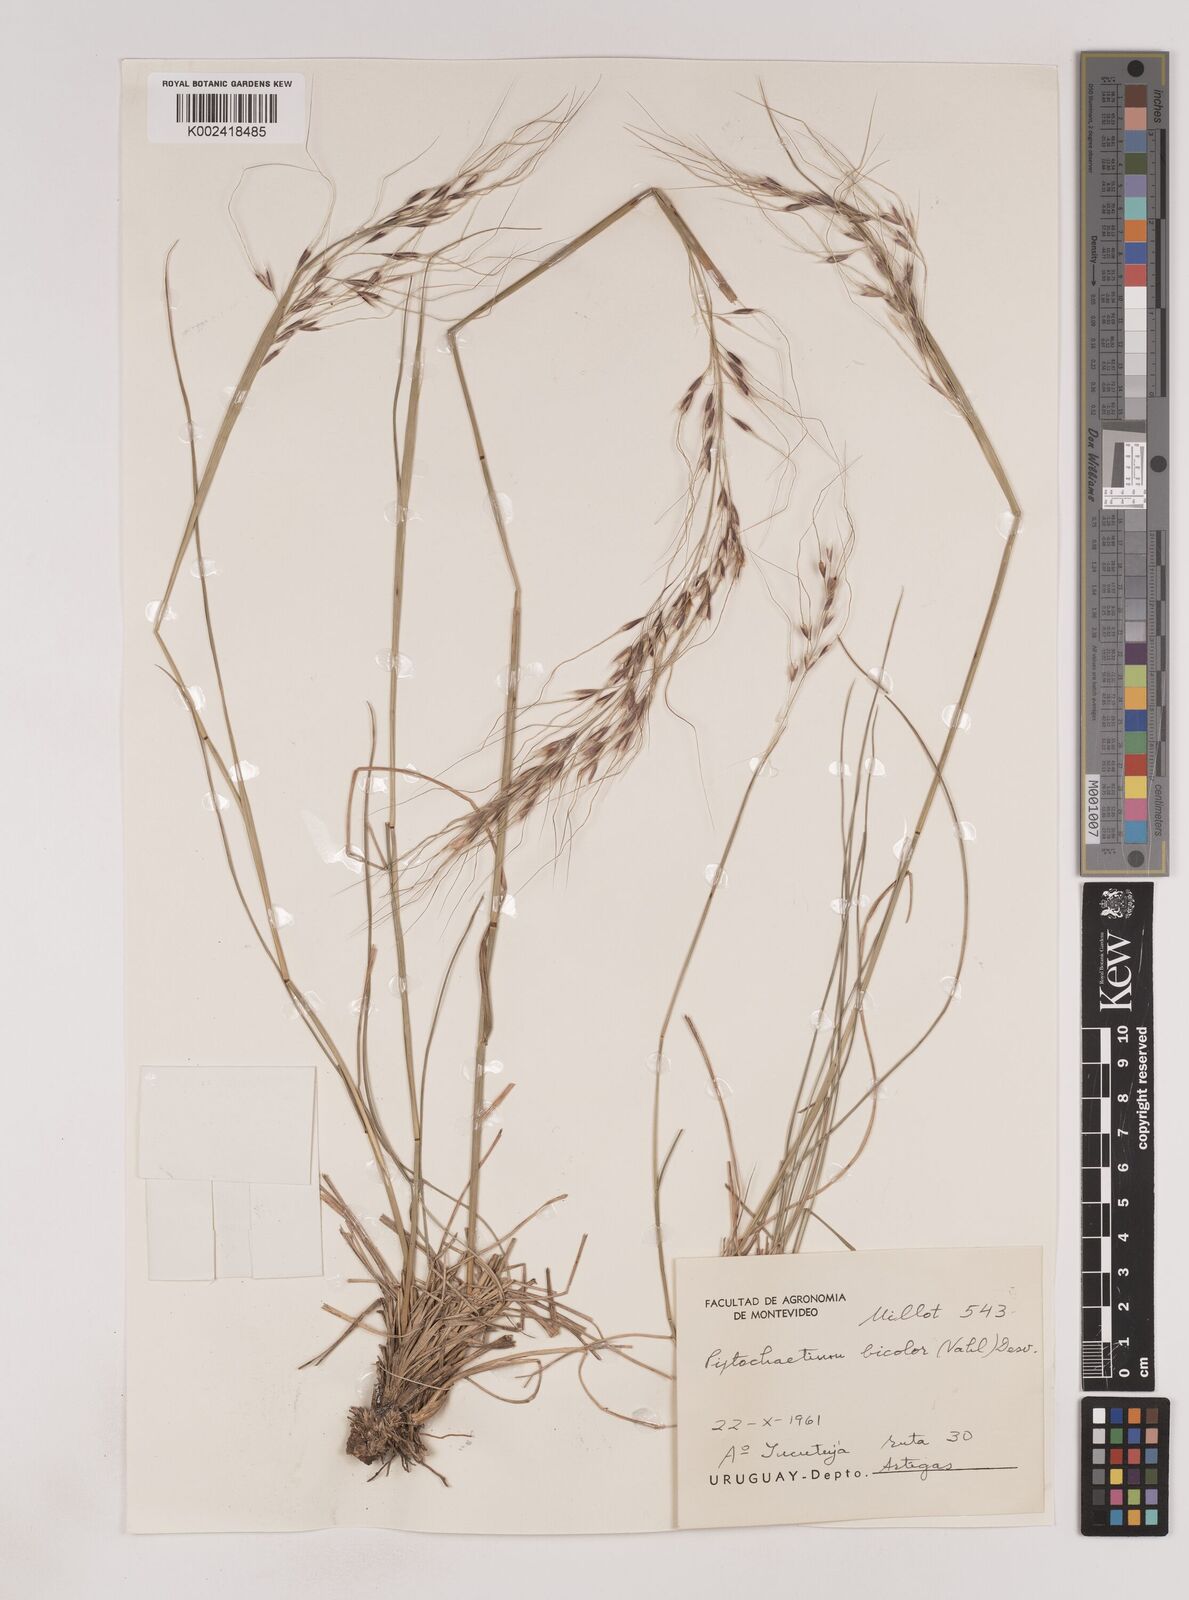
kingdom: Plantae
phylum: Tracheophyta
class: Liliopsida
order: Poales
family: Poaceae
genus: Piptochaetium
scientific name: Piptochaetium bicolor
